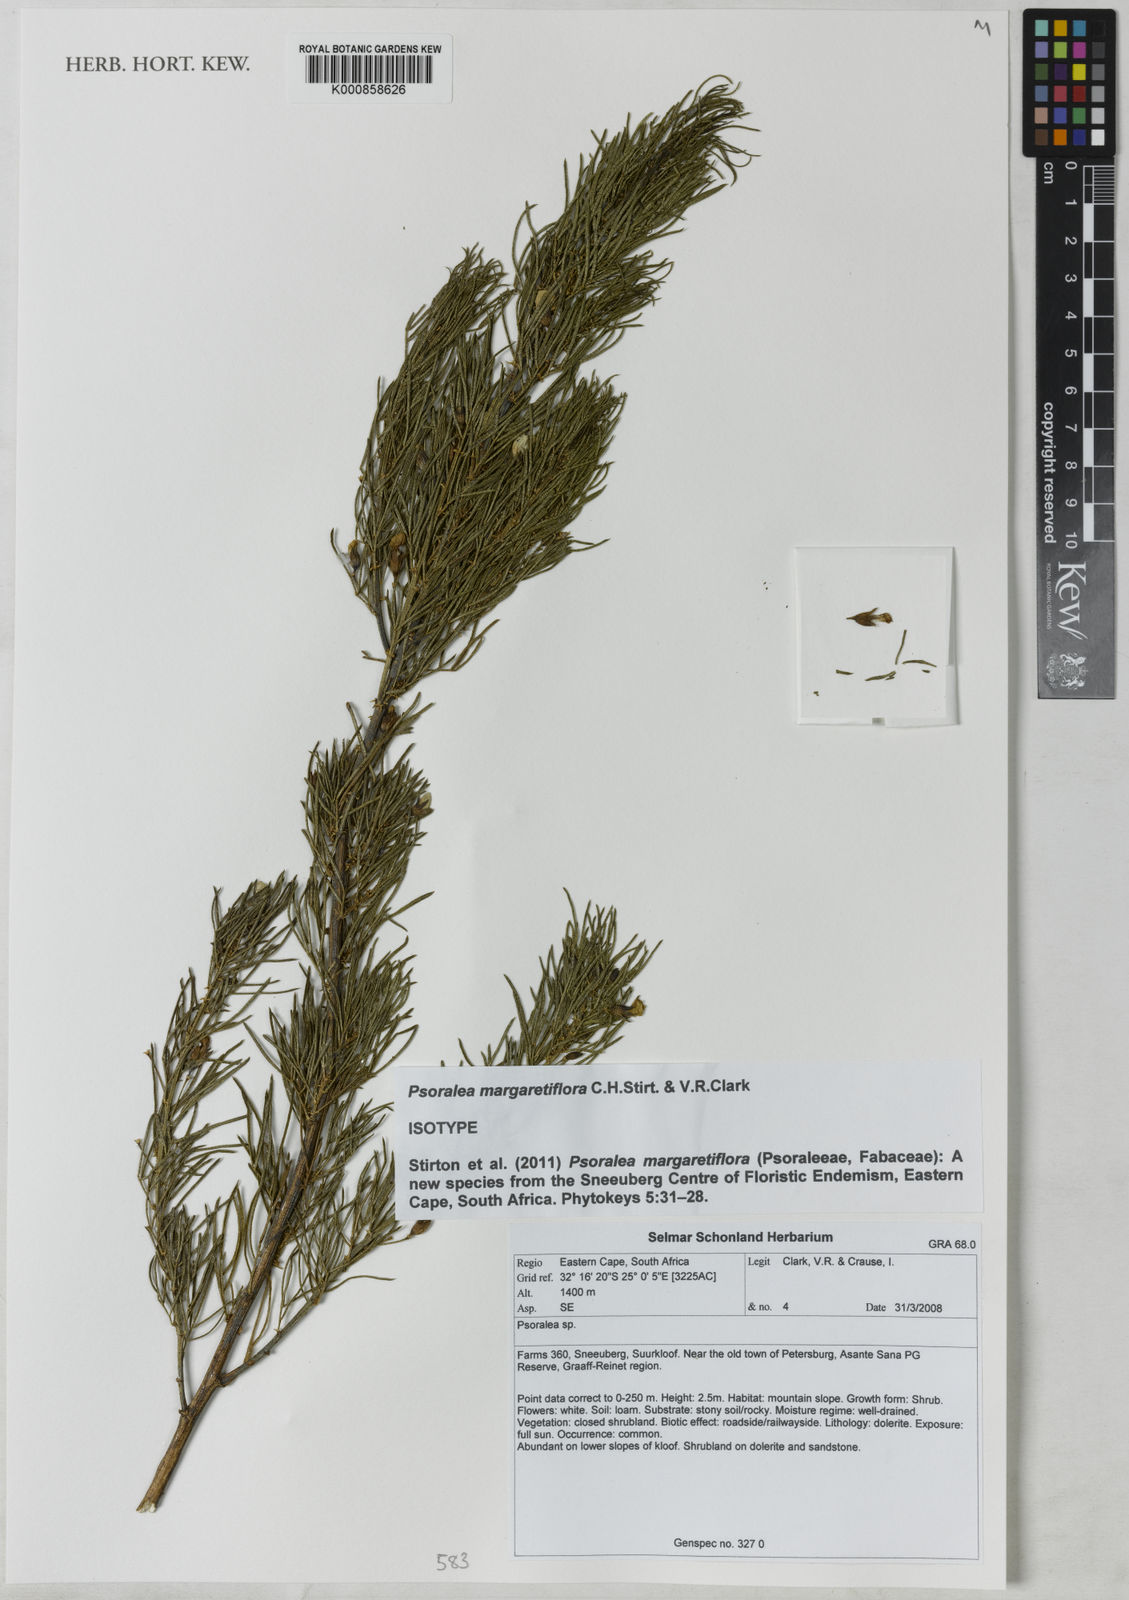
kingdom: Plantae
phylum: Tracheophyta
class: Magnoliopsida
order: Fabales
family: Fabaceae
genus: Psoralea
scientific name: Psoralea margaretiflora
